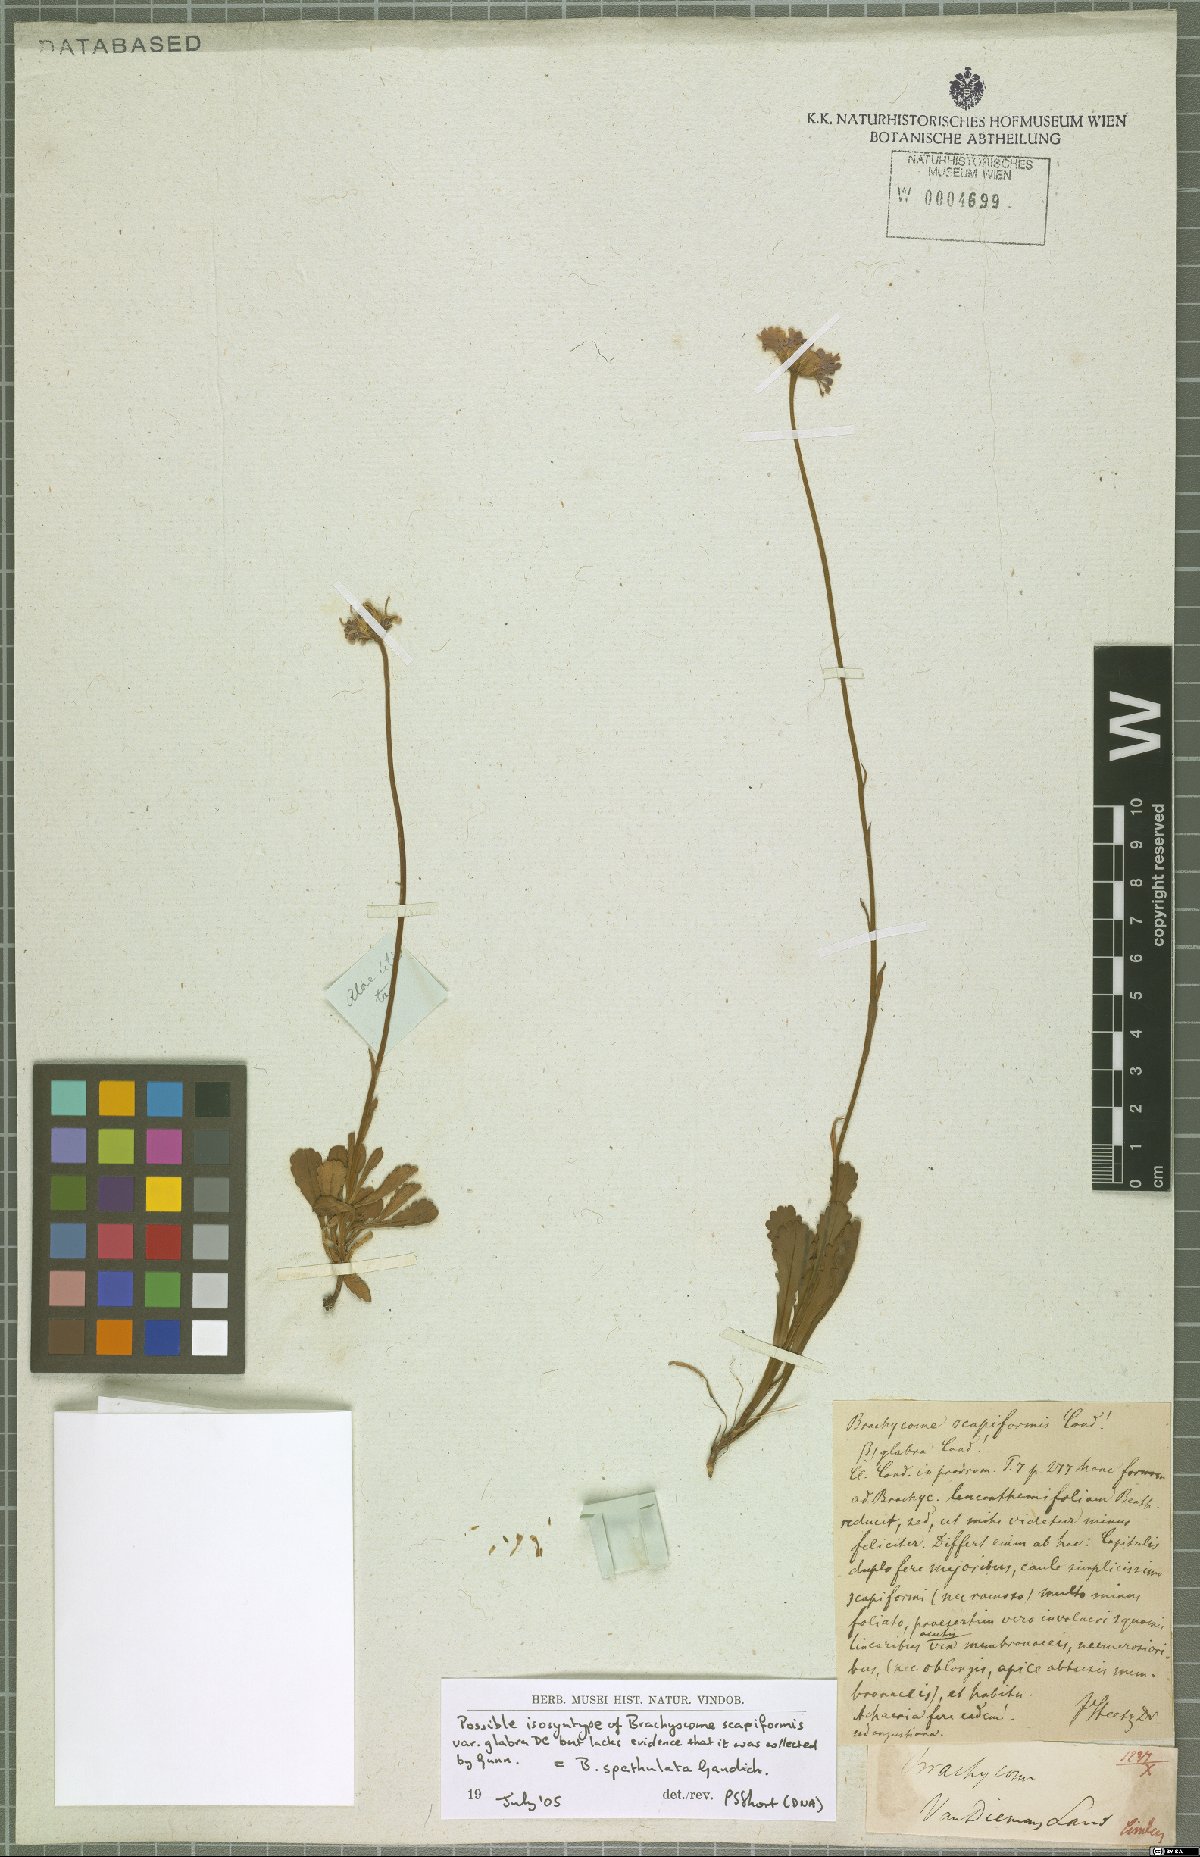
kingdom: Plantae
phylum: Tracheophyta
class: Magnoliopsida
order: Asterales
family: Asteraceae
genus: Brachyscome
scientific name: Brachyscome spathulata
